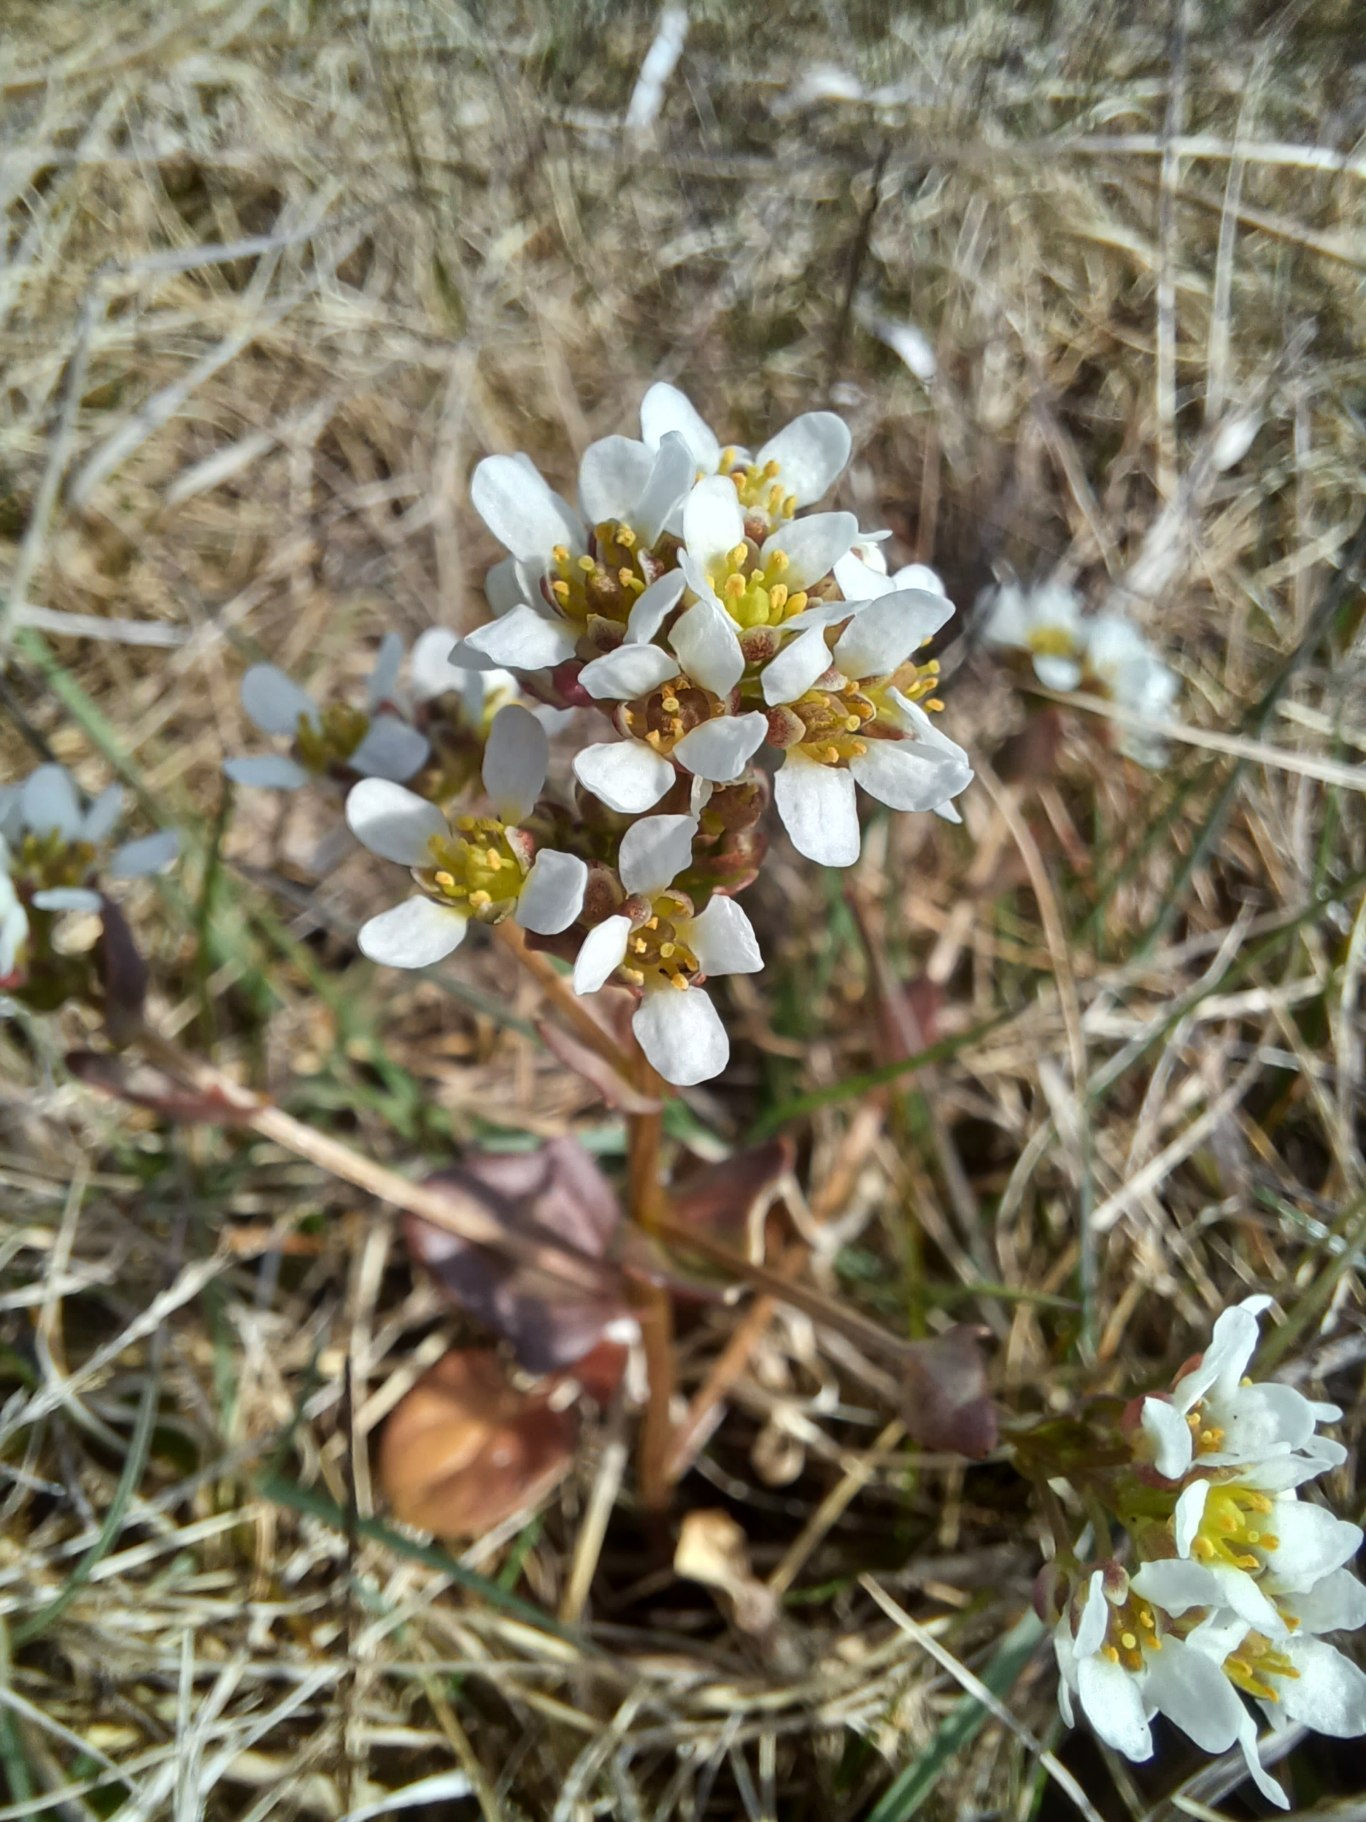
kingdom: Plantae
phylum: Tracheophyta
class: Magnoliopsida
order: Brassicales
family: Brassicaceae
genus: Cochlearia
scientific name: Cochlearia officinalis
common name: Læge-kokleare
